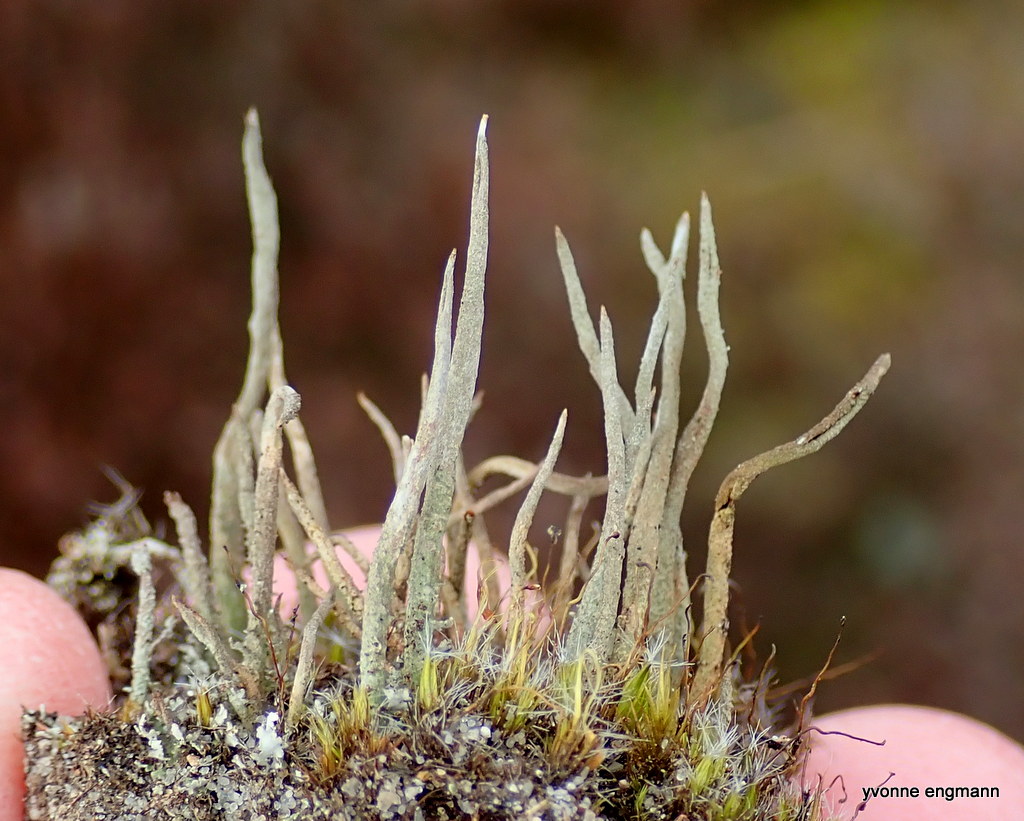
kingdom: Fungi
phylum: Ascomycota
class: Lecanoromycetes
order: Lecanorales
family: Cladoniaceae
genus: Cladonia
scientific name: Cladonia glauca
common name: grågrøn bægerlav
